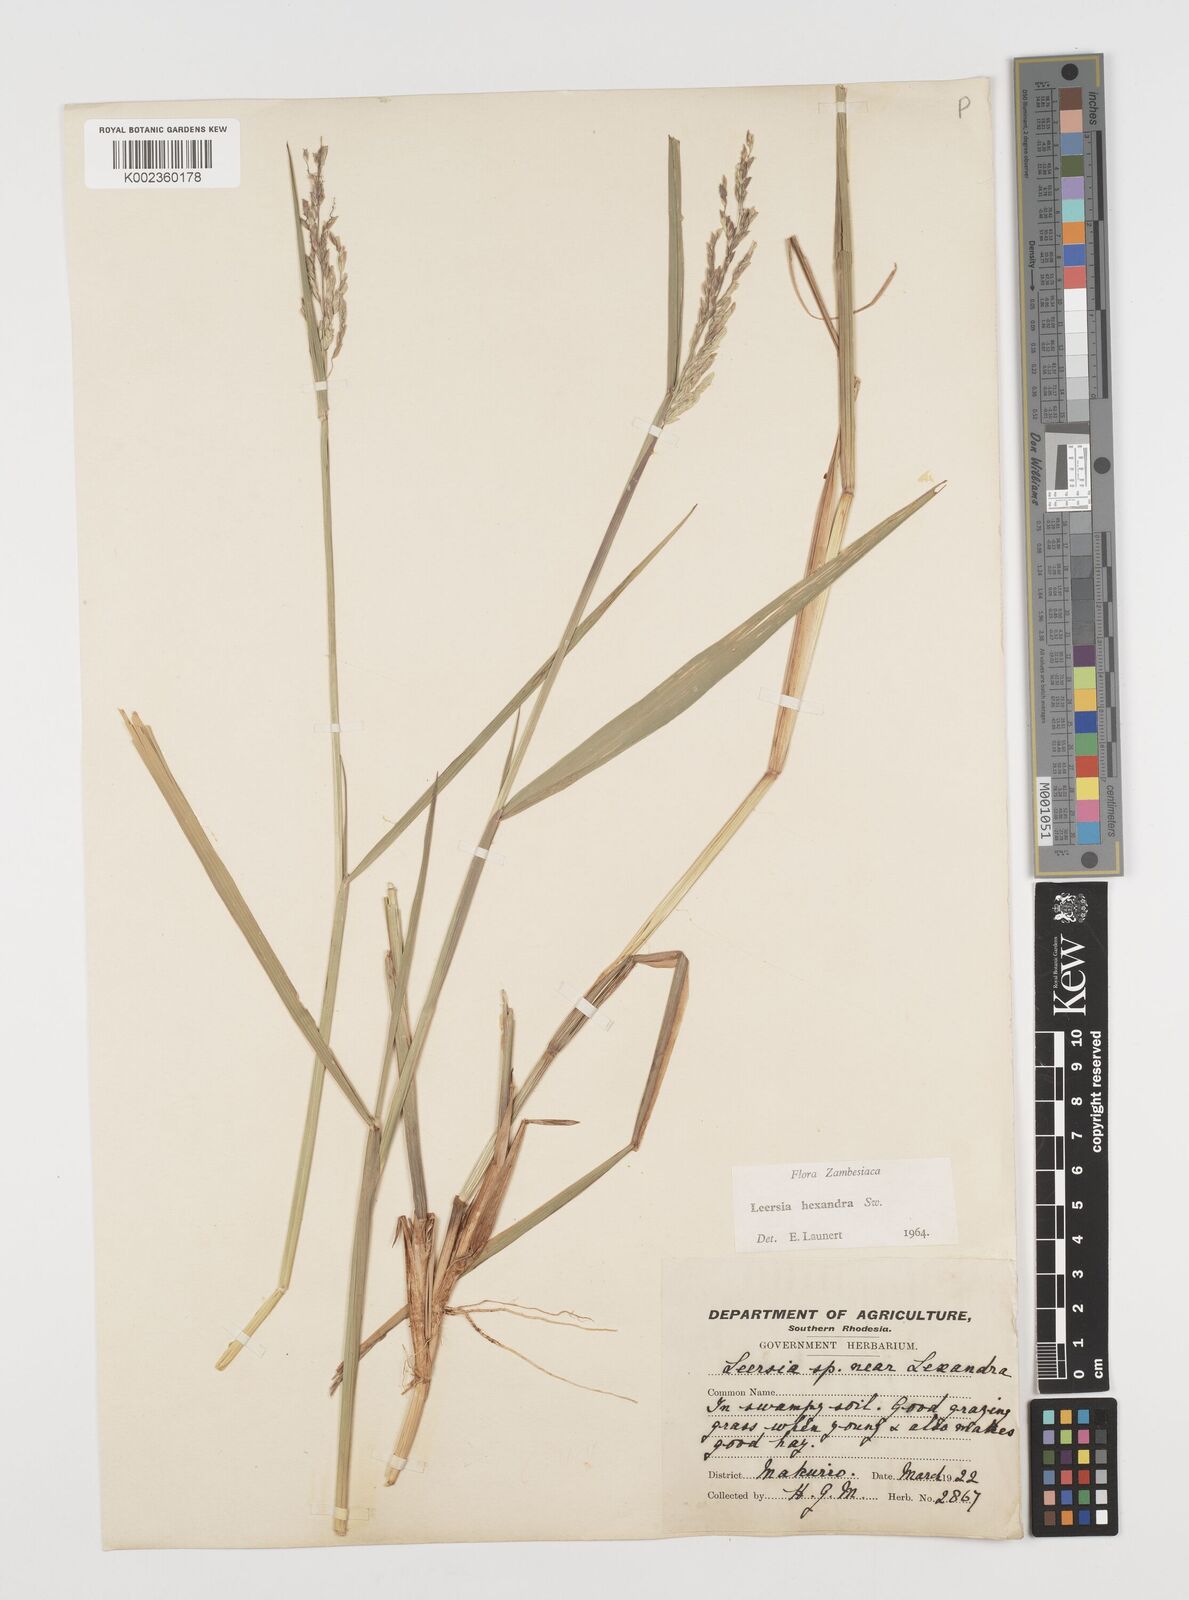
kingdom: Plantae
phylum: Tracheophyta
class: Liliopsida
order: Poales
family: Poaceae
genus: Leersia
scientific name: Leersia hexandra
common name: Southern cut grass
